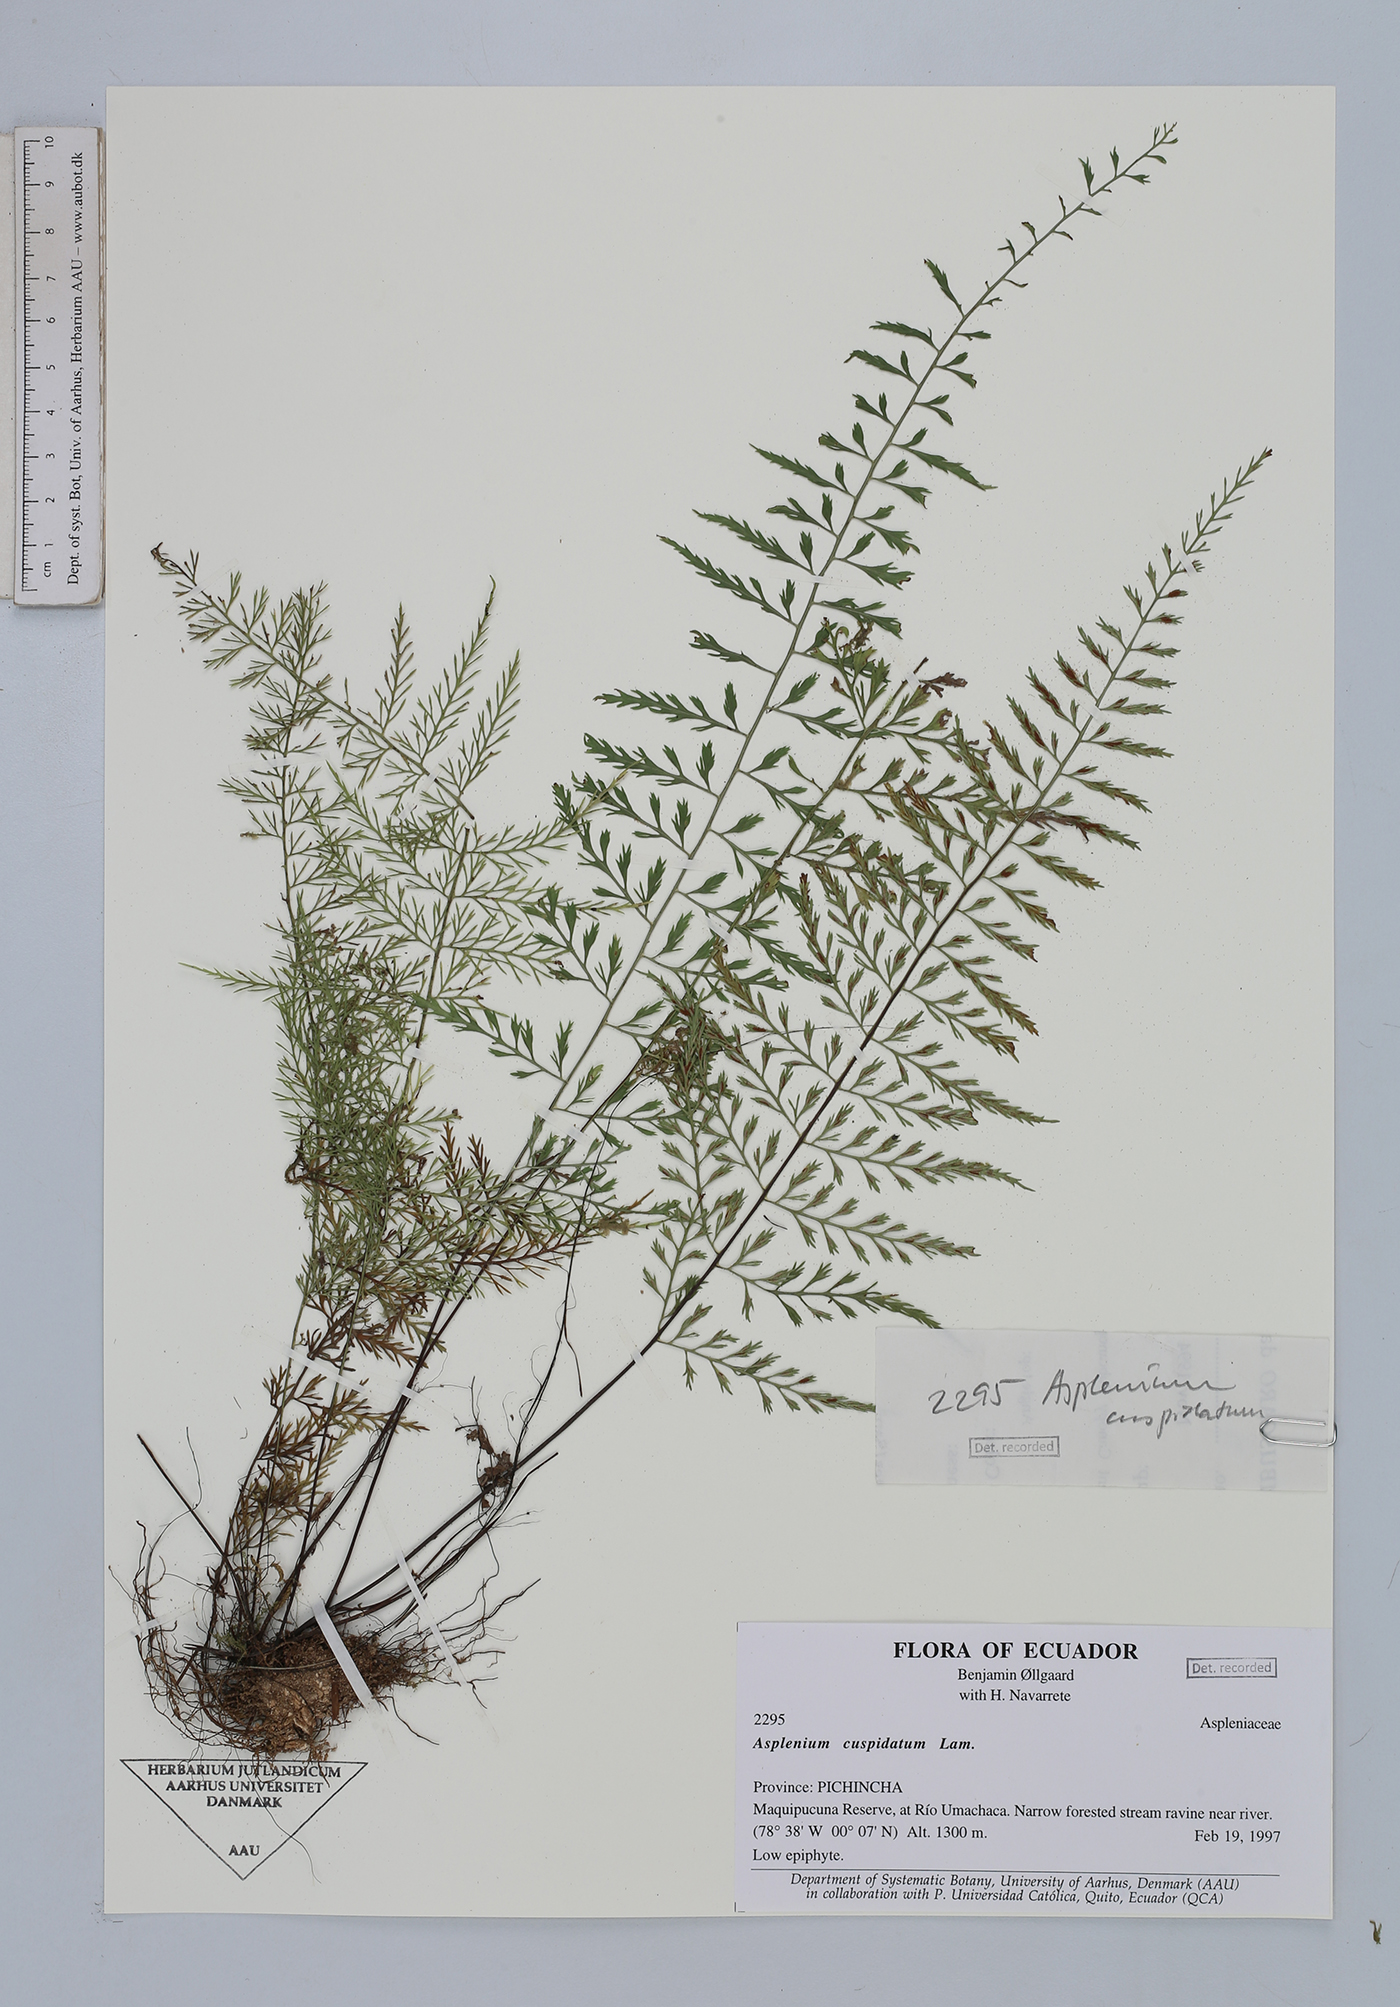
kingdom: Plantae
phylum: Tracheophyta
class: Polypodiopsida
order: Polypodiales
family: Aspleniaceae
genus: Asplenium
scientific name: Asplenium cuspidatum
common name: Eared spleenwort
